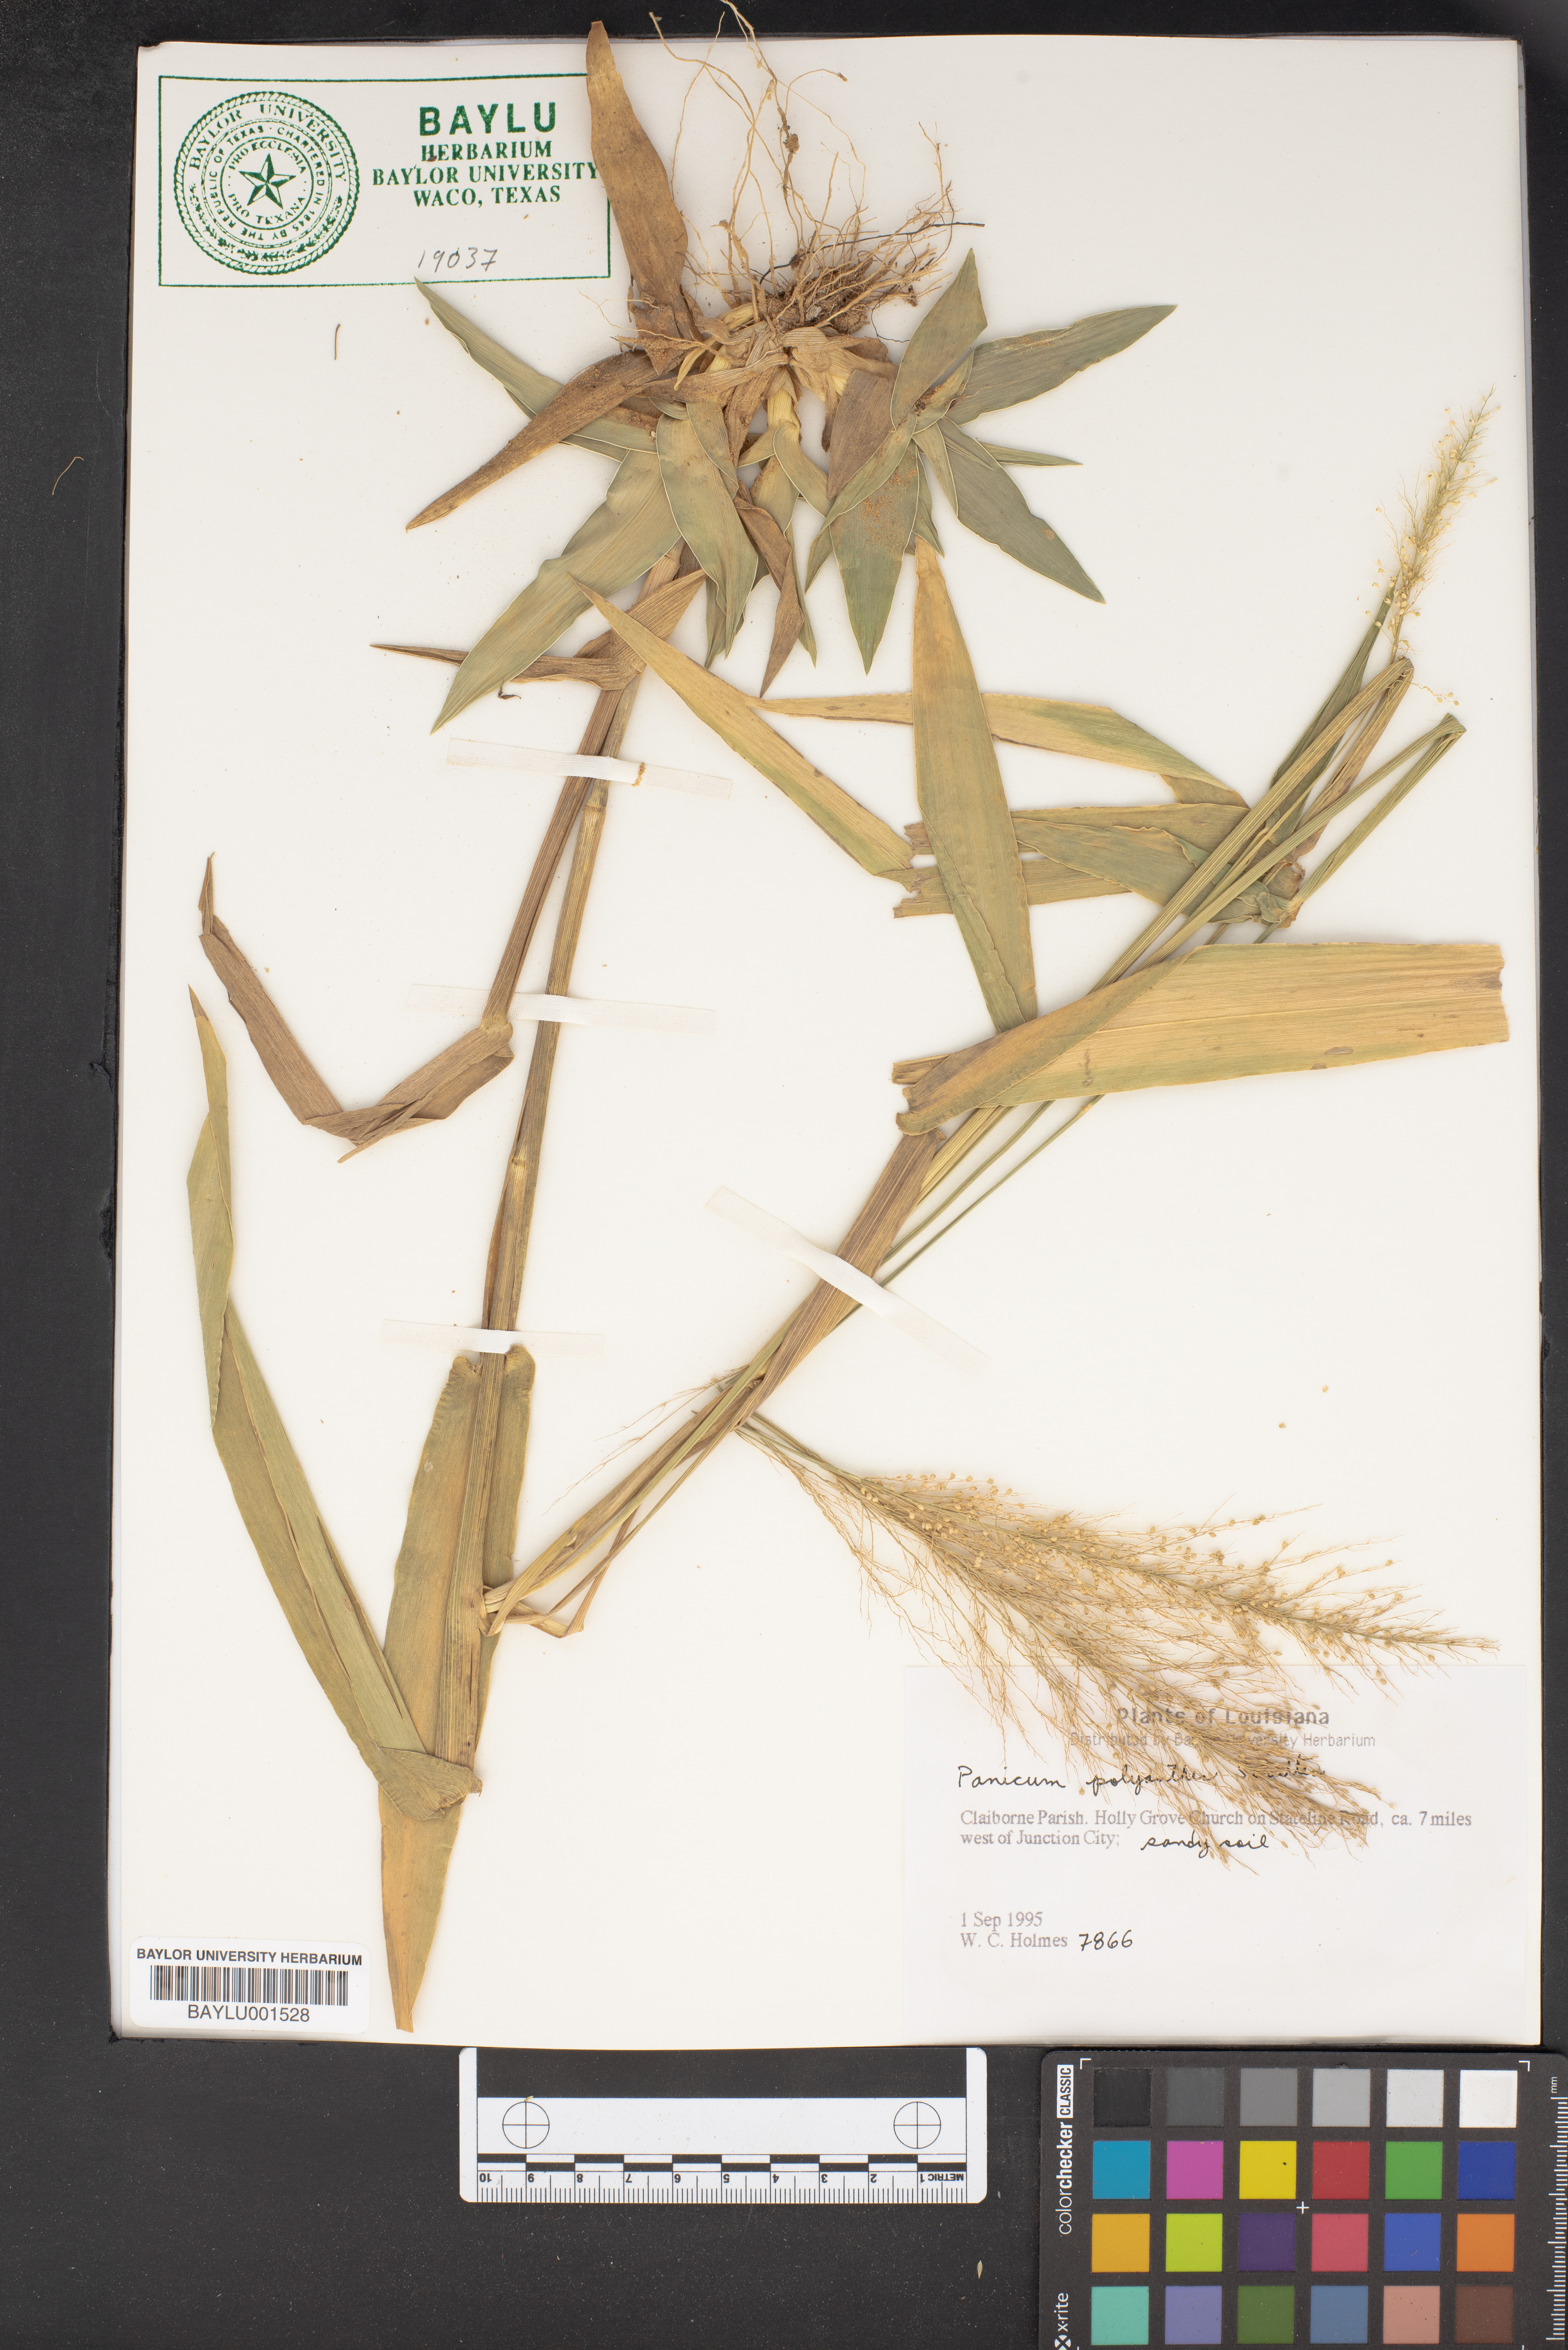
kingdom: Plantae
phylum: Tracheophyta
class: Liliopsida
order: Poales
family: Poaceae
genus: Dichanthelium
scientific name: Dichanthelium polyanthes
